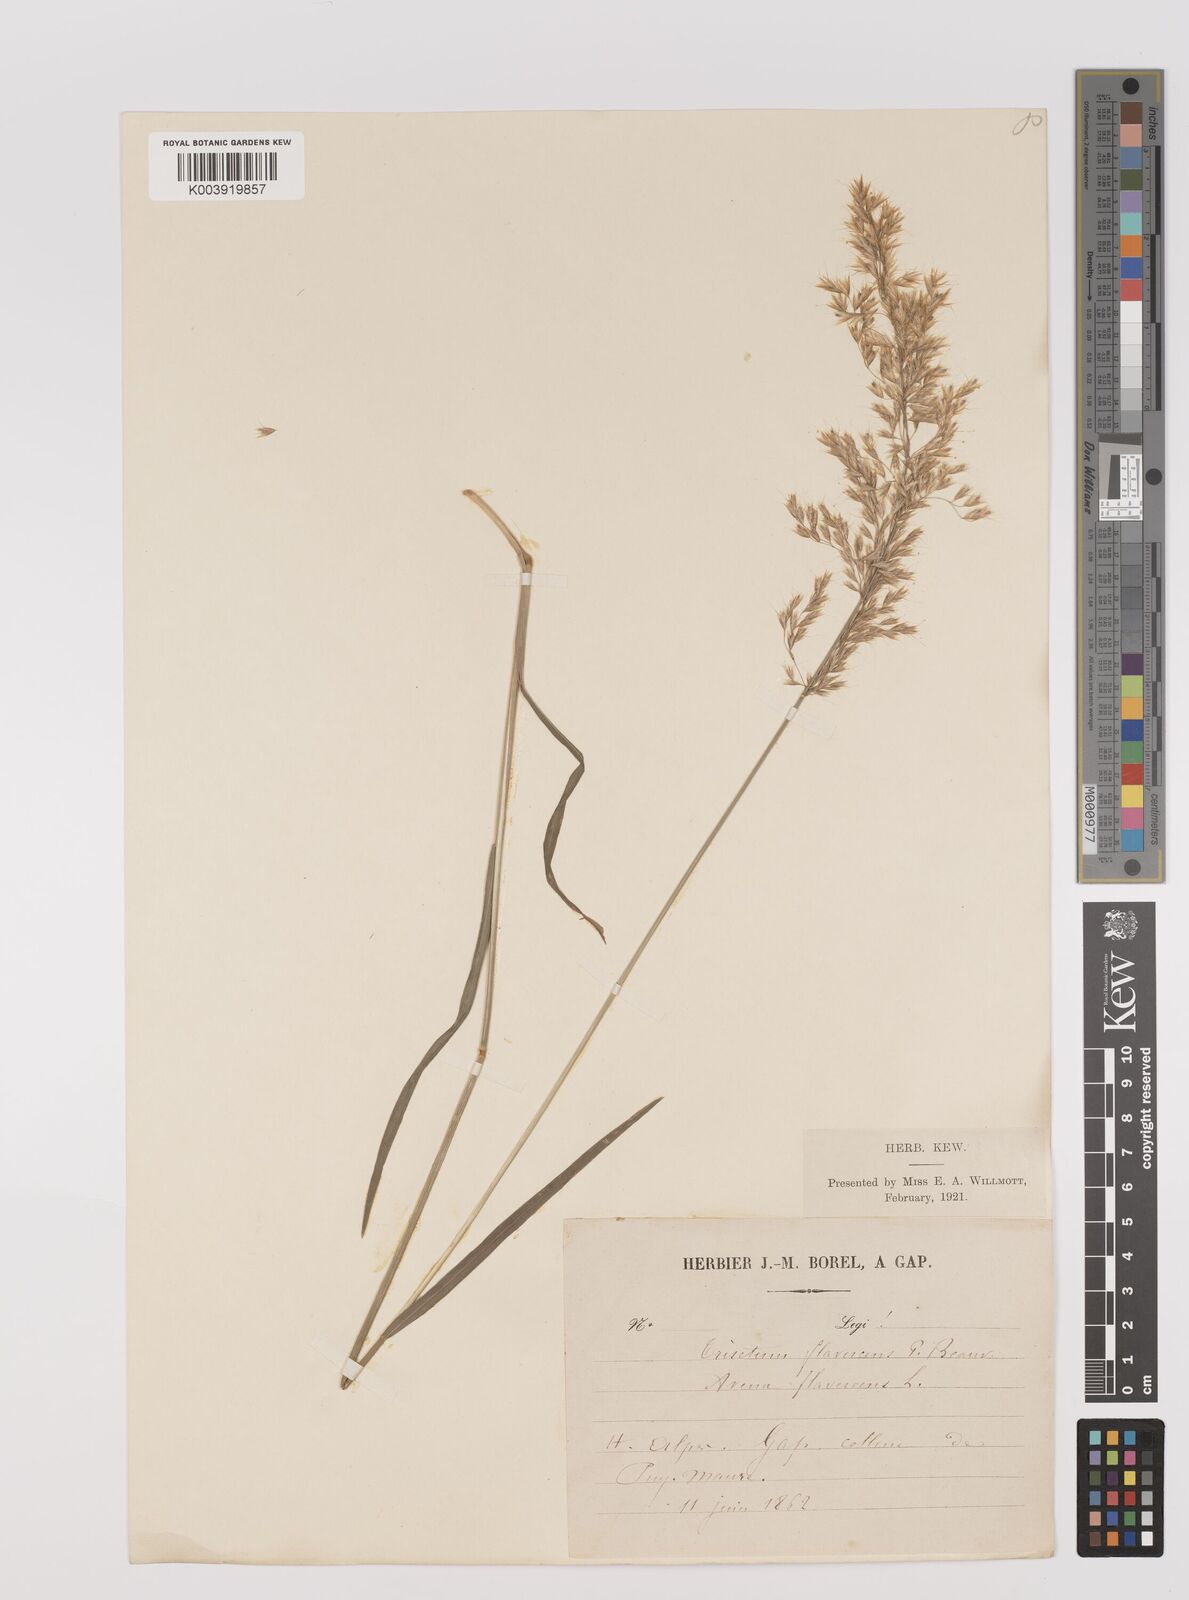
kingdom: Plantae
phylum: Tracheophyta
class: Liliopsida
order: Poales
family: Poaceae
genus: Trisetum
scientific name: Trisetum flavescens
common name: Yellow oat-grass
